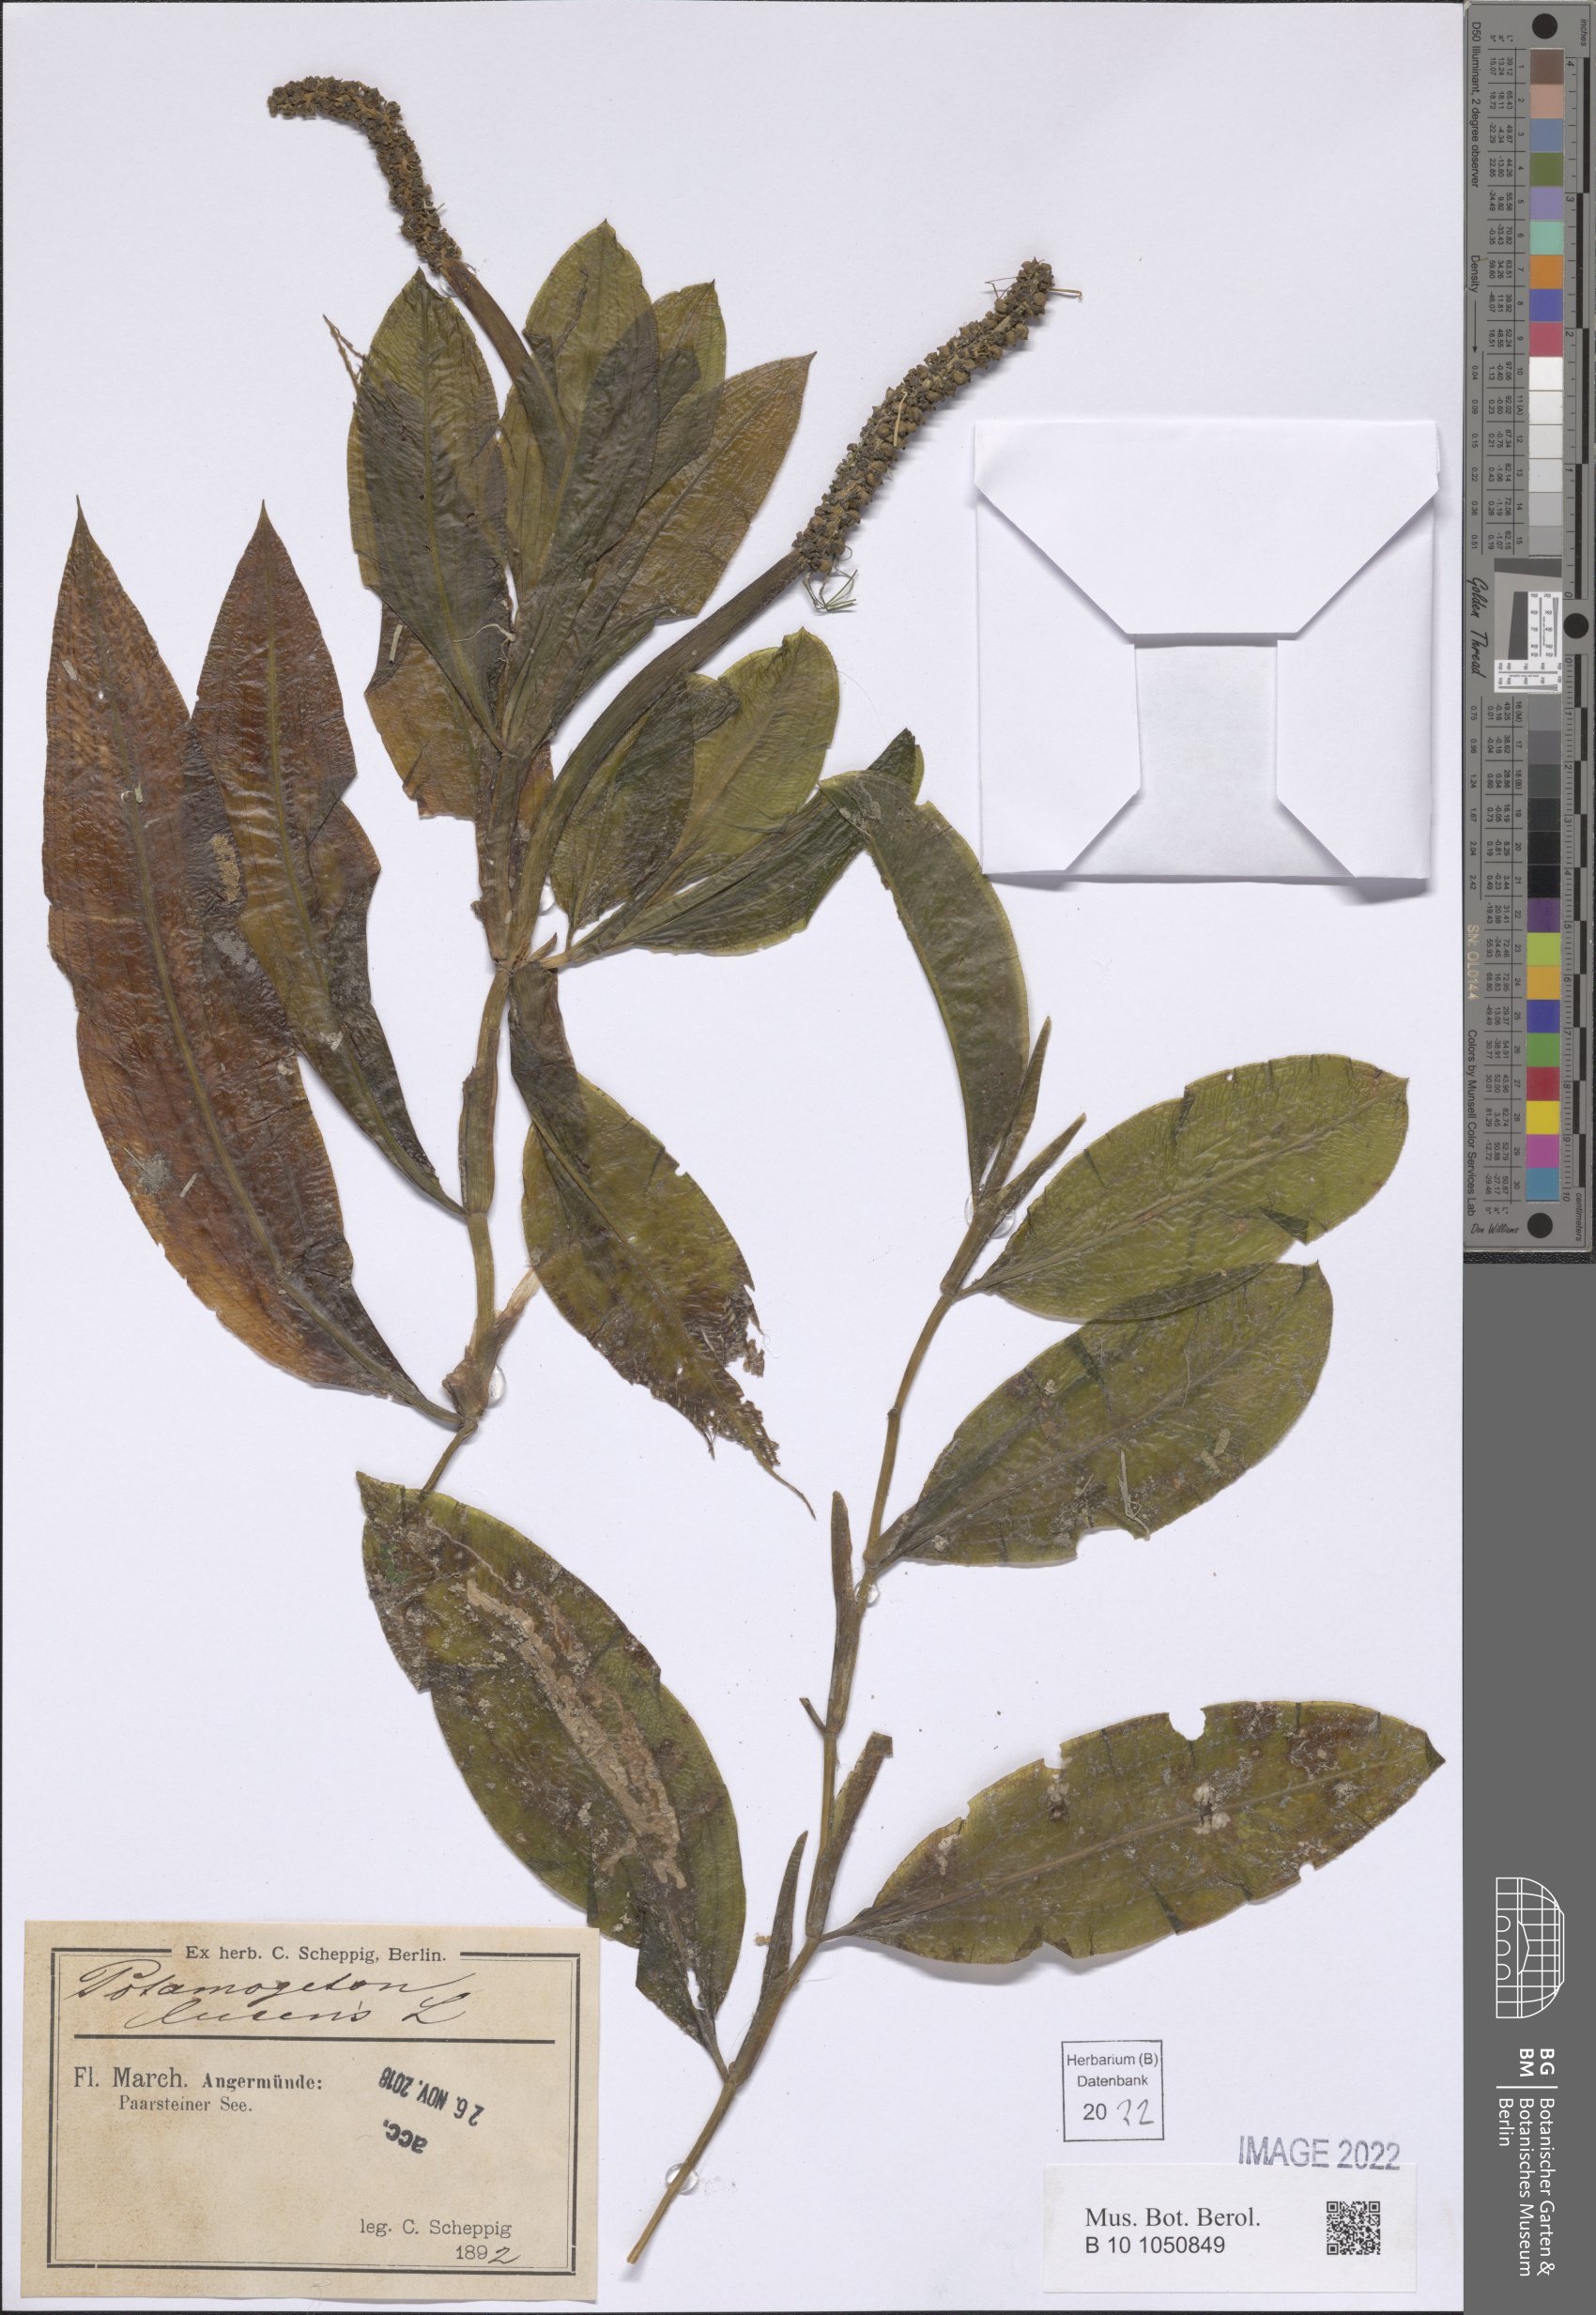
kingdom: Plantae
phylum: Tracheophyta
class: Liliopsida
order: Alismatales
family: Potamogetonaceae
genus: Potamogeton
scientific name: Potamogeton lucens
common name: Shining pondweed
